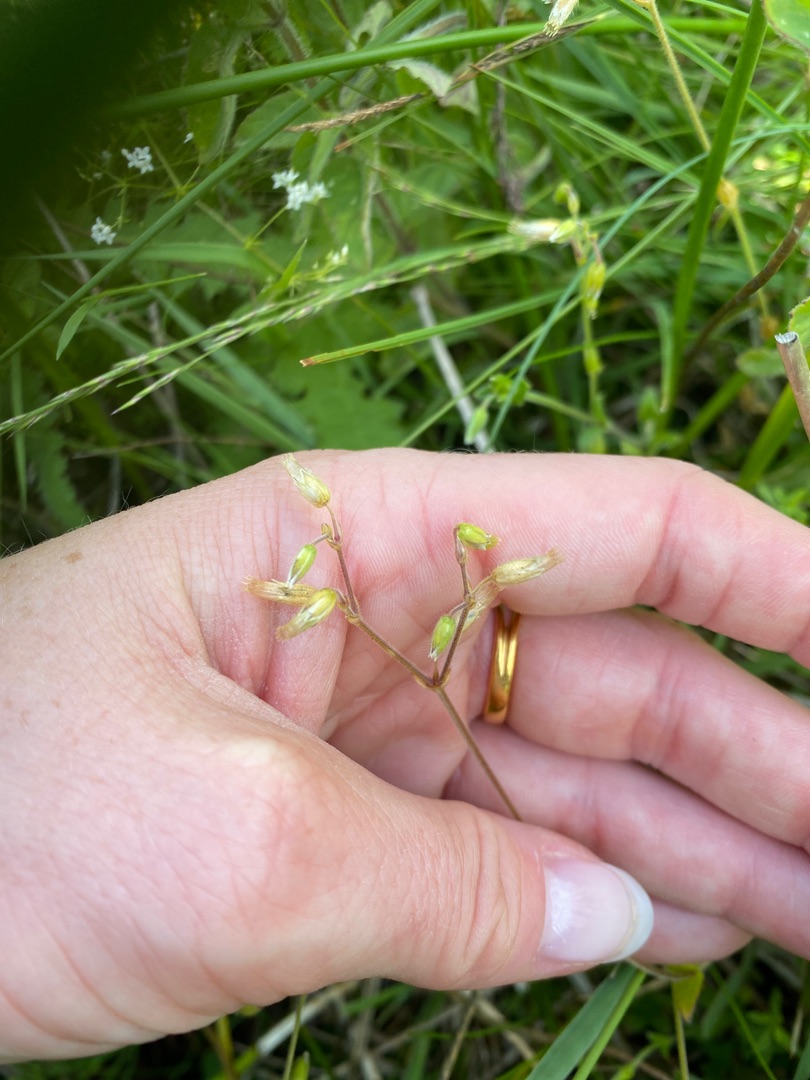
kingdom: Plantae
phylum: Tracheophyta
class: Magnoliopsida
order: Caryophyllales
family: Caryophyllaceae
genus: Cerastium
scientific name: Cerastium fontanum
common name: Almindelig hønsetarm
